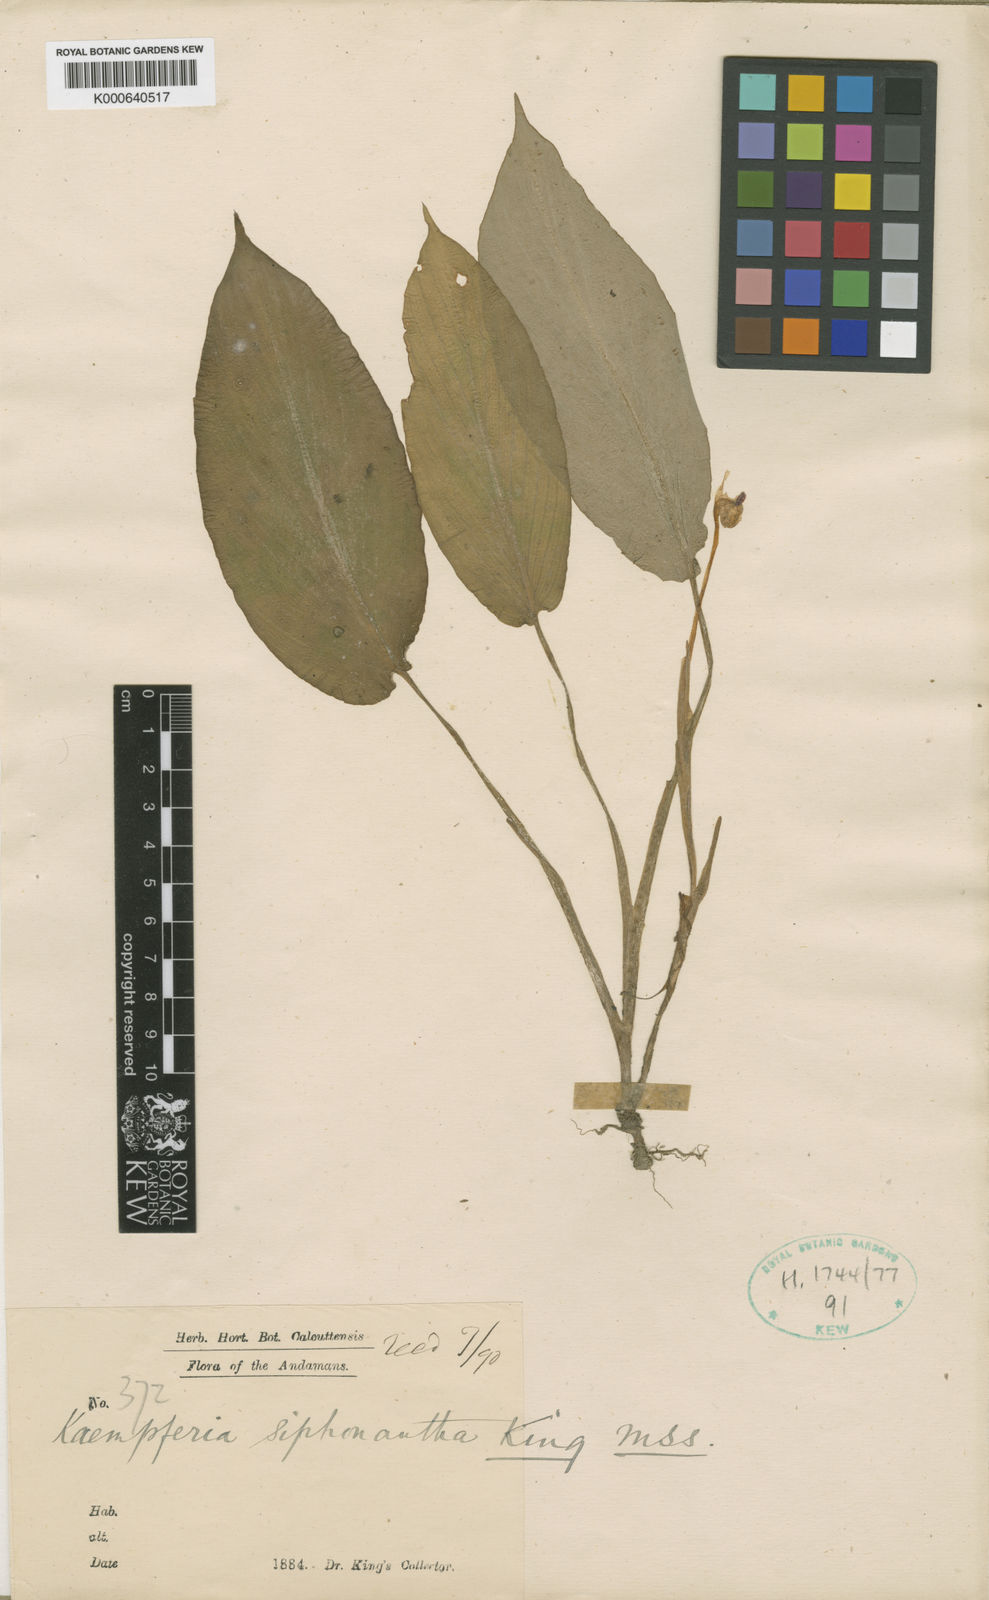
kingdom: Plantae
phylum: Tracheophyta
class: Liliopsida
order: Zingiberales
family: Zingiberaceae
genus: Boesenbergia
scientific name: Boesenbergia
